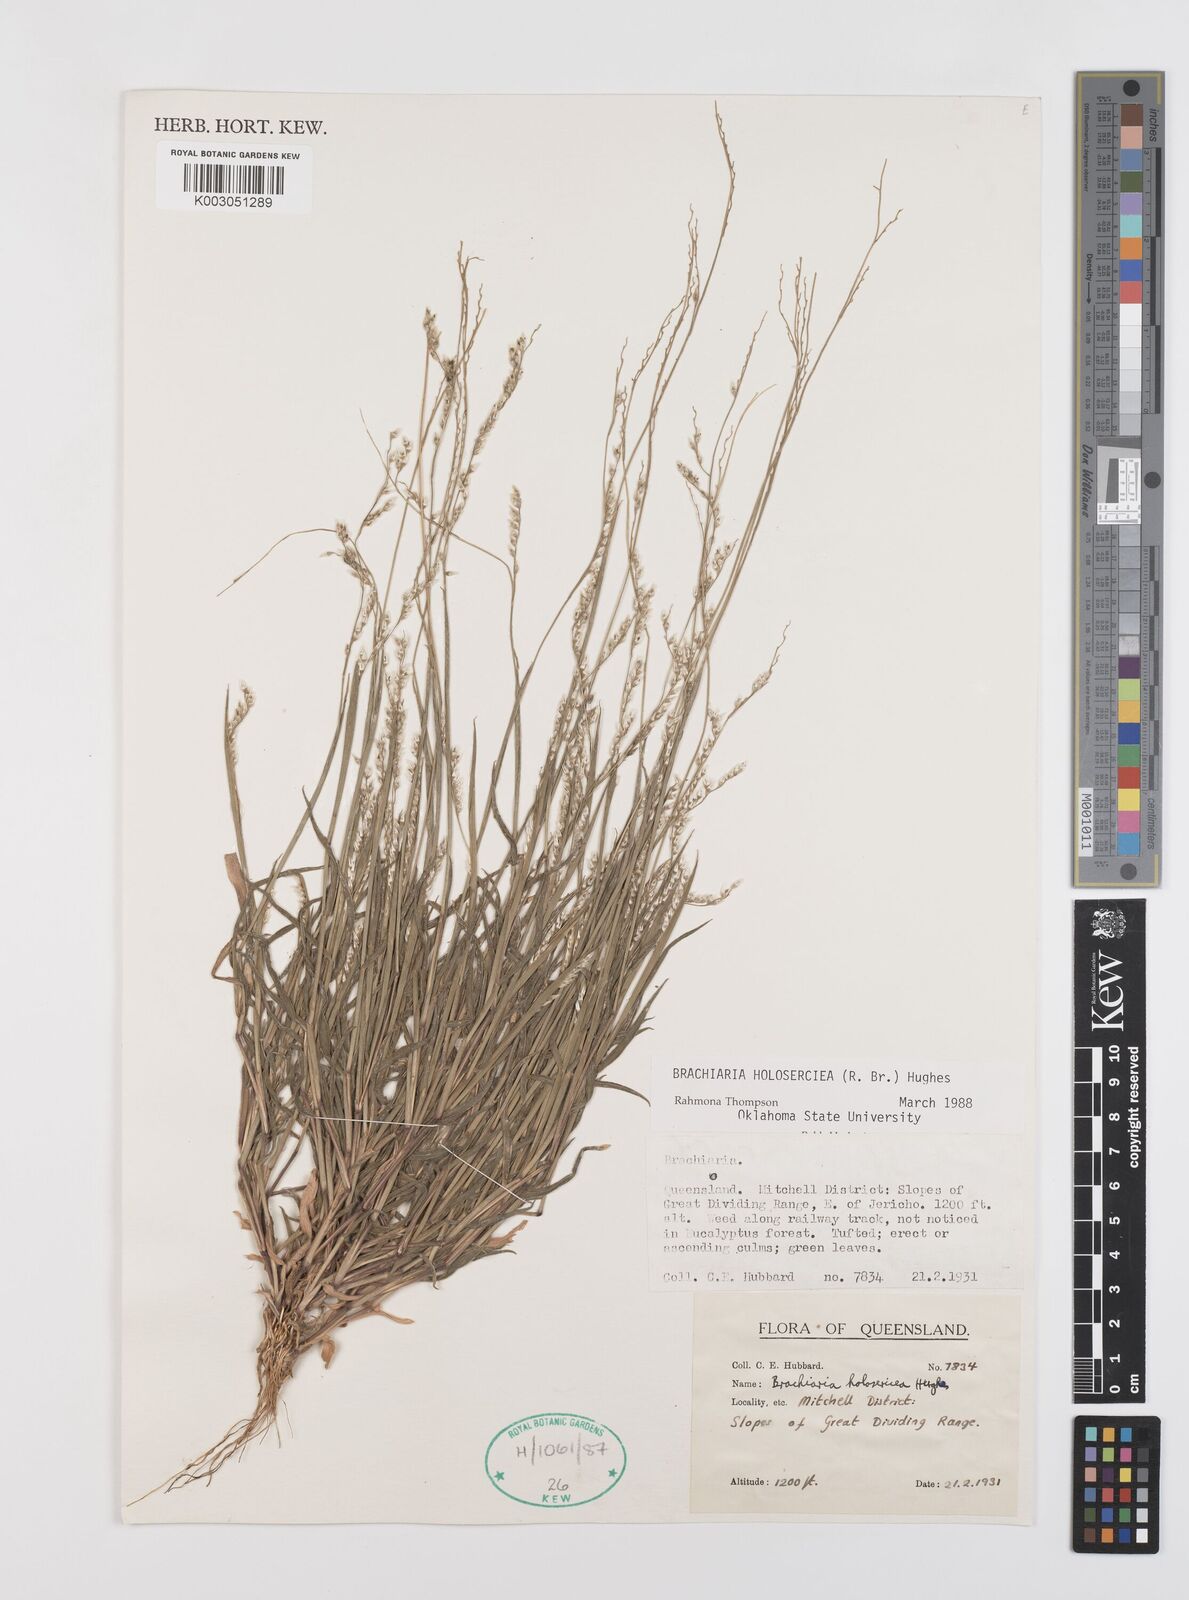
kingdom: Plantae
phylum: Tracheophyta
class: Liliopsida
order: Poales
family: Poaceae
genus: Urochloa
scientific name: Urochloa holosericea
